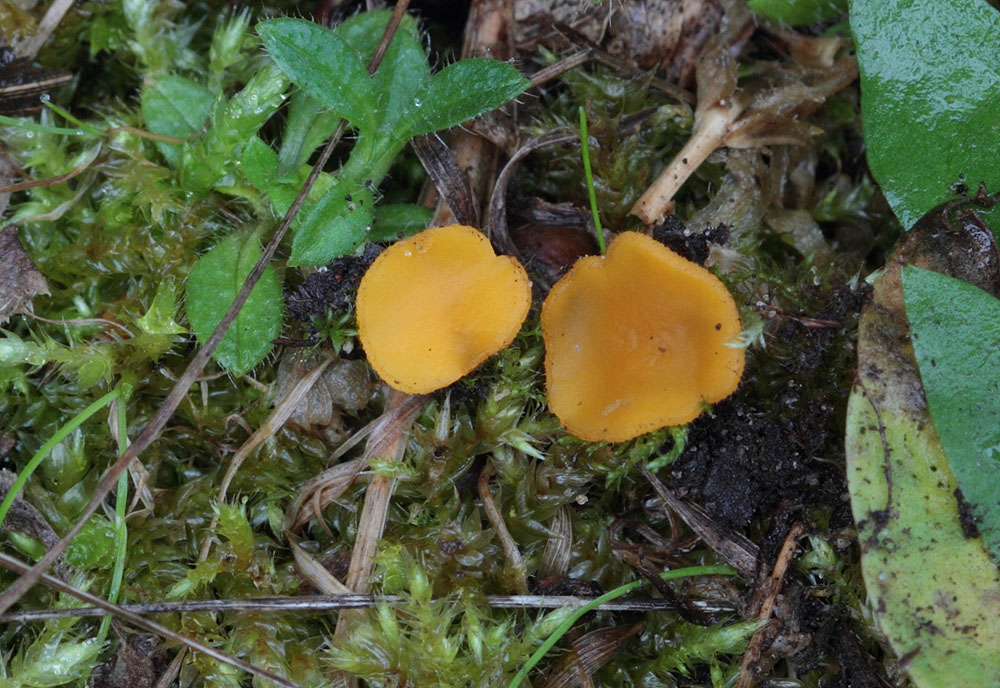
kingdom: Fungi
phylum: Ascomycota
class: Pezizomycetes
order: Pezizales
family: Pyronemataceae
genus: Cheilymenia
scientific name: Cheilymenia vitellina
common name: æggegul hårbæger
